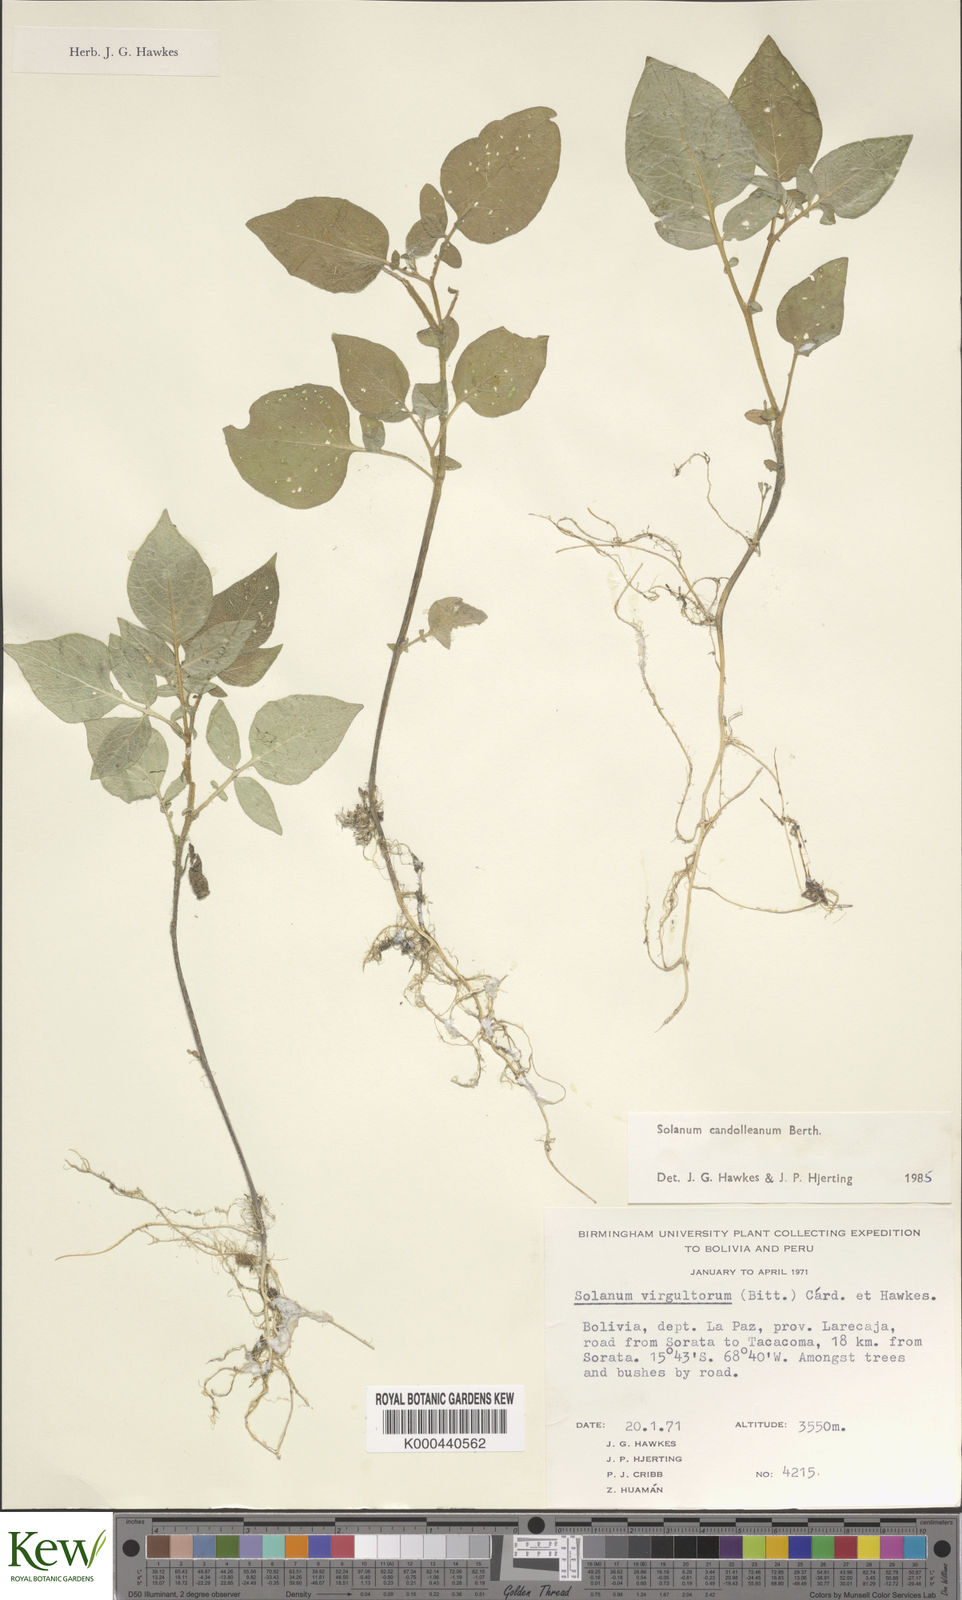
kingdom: Plantae
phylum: Tracheophyta
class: Magnoliopsida
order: Solanales
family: Solanaceae
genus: Solanum
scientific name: Solanum brevicaule
